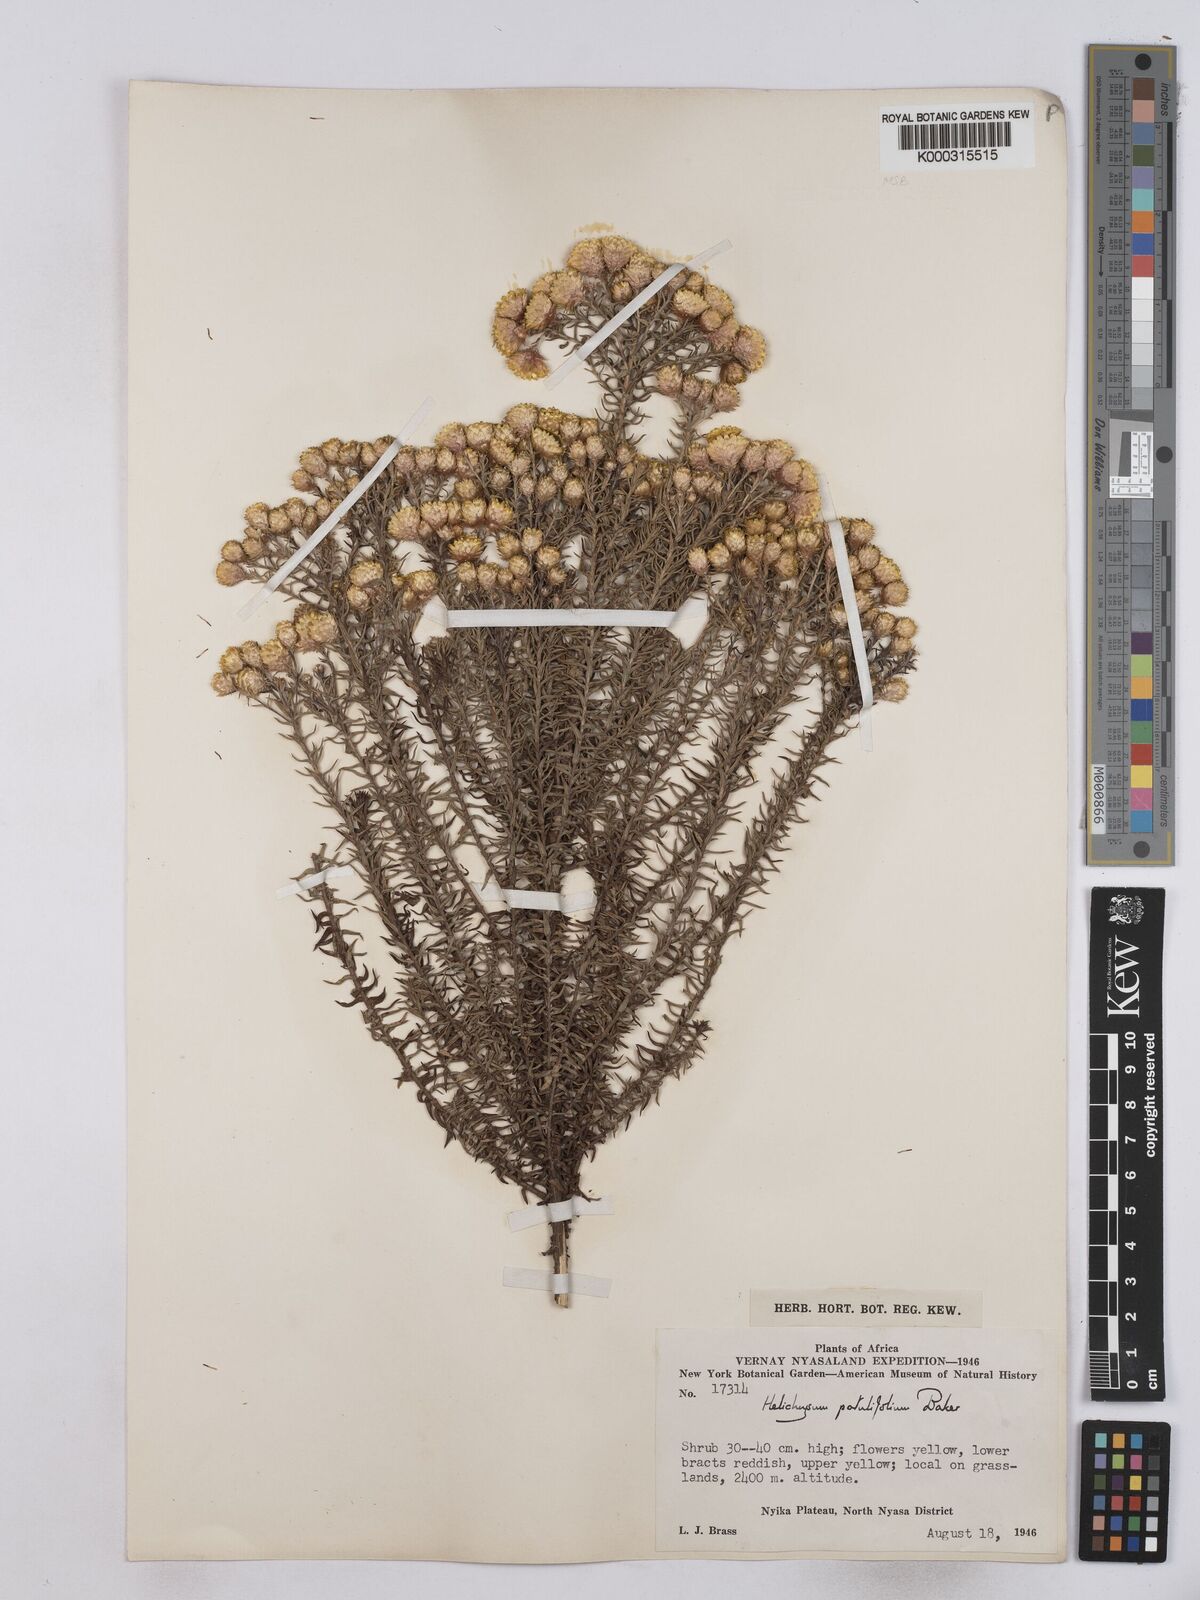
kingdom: Plantae
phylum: Tracheophyta
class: Magnoliopsida
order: Asterales
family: Asteraceae
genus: Helichrysum
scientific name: Helichrysum patulifolium
